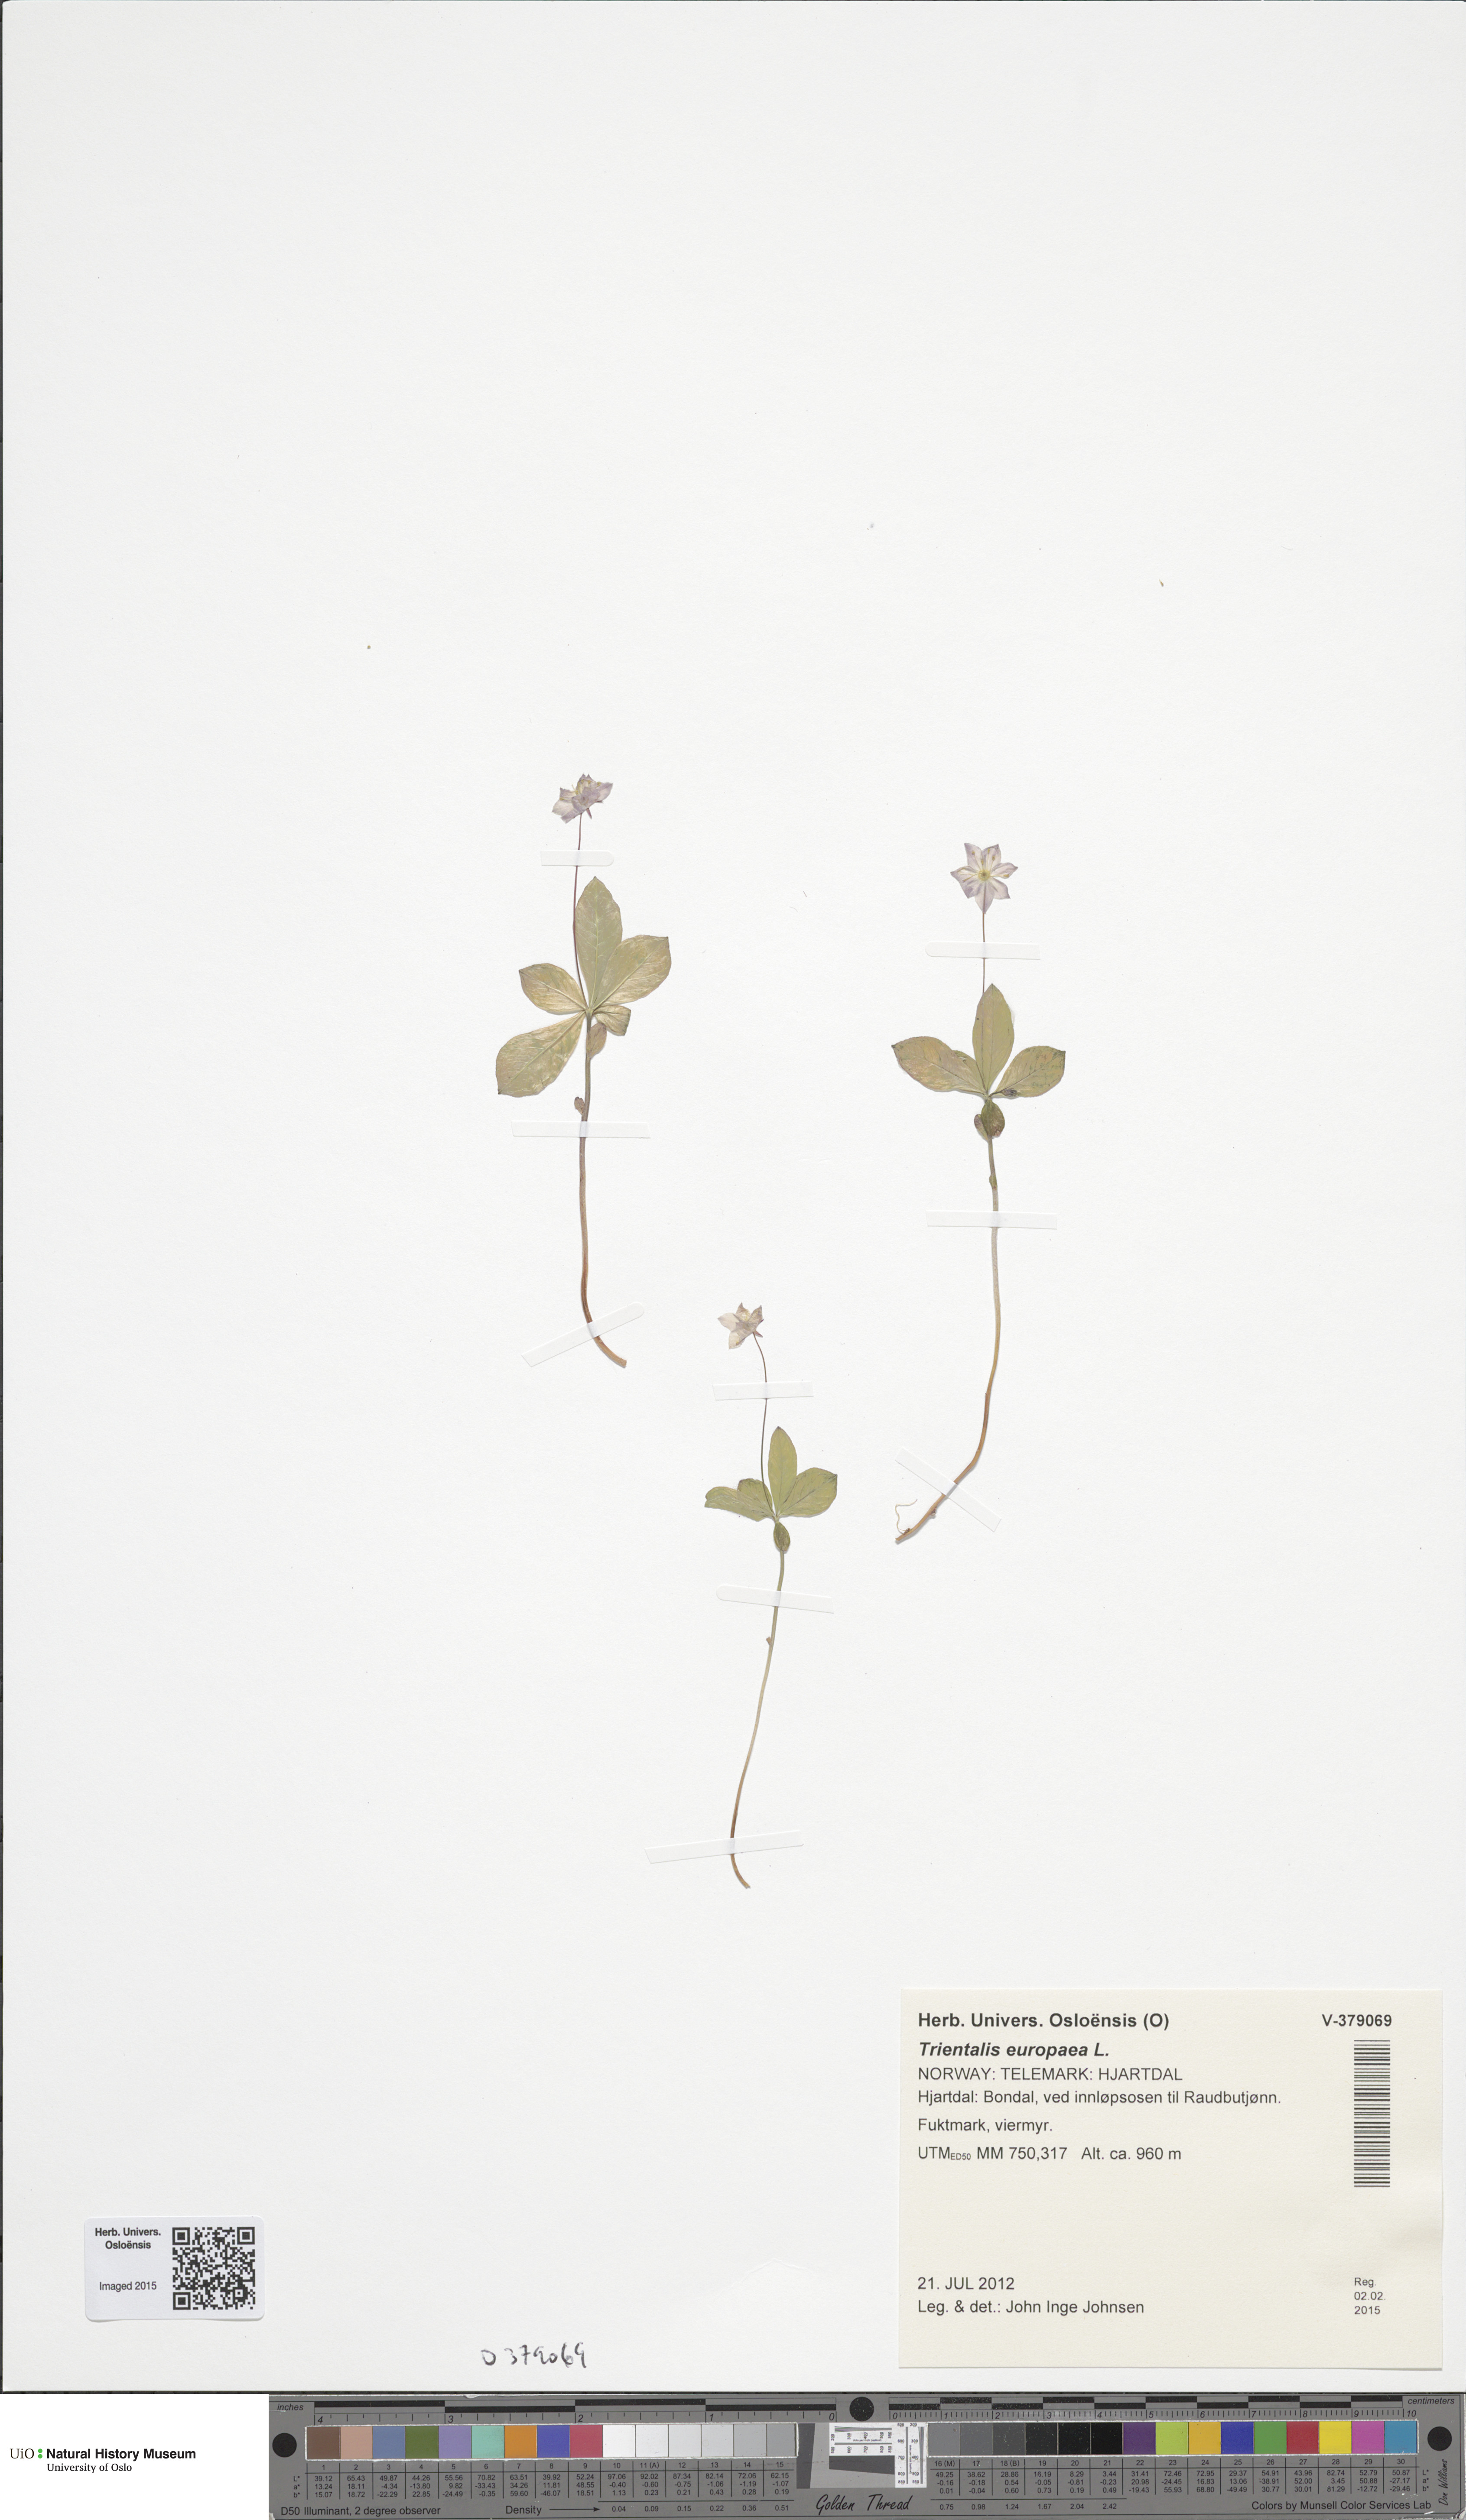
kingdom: Plantae
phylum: Tracheophyta
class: Magnoliopsida
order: Ericales
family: Primulaceae
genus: Lysimachia
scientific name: Lysimachia europaea
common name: Arctic starflower
